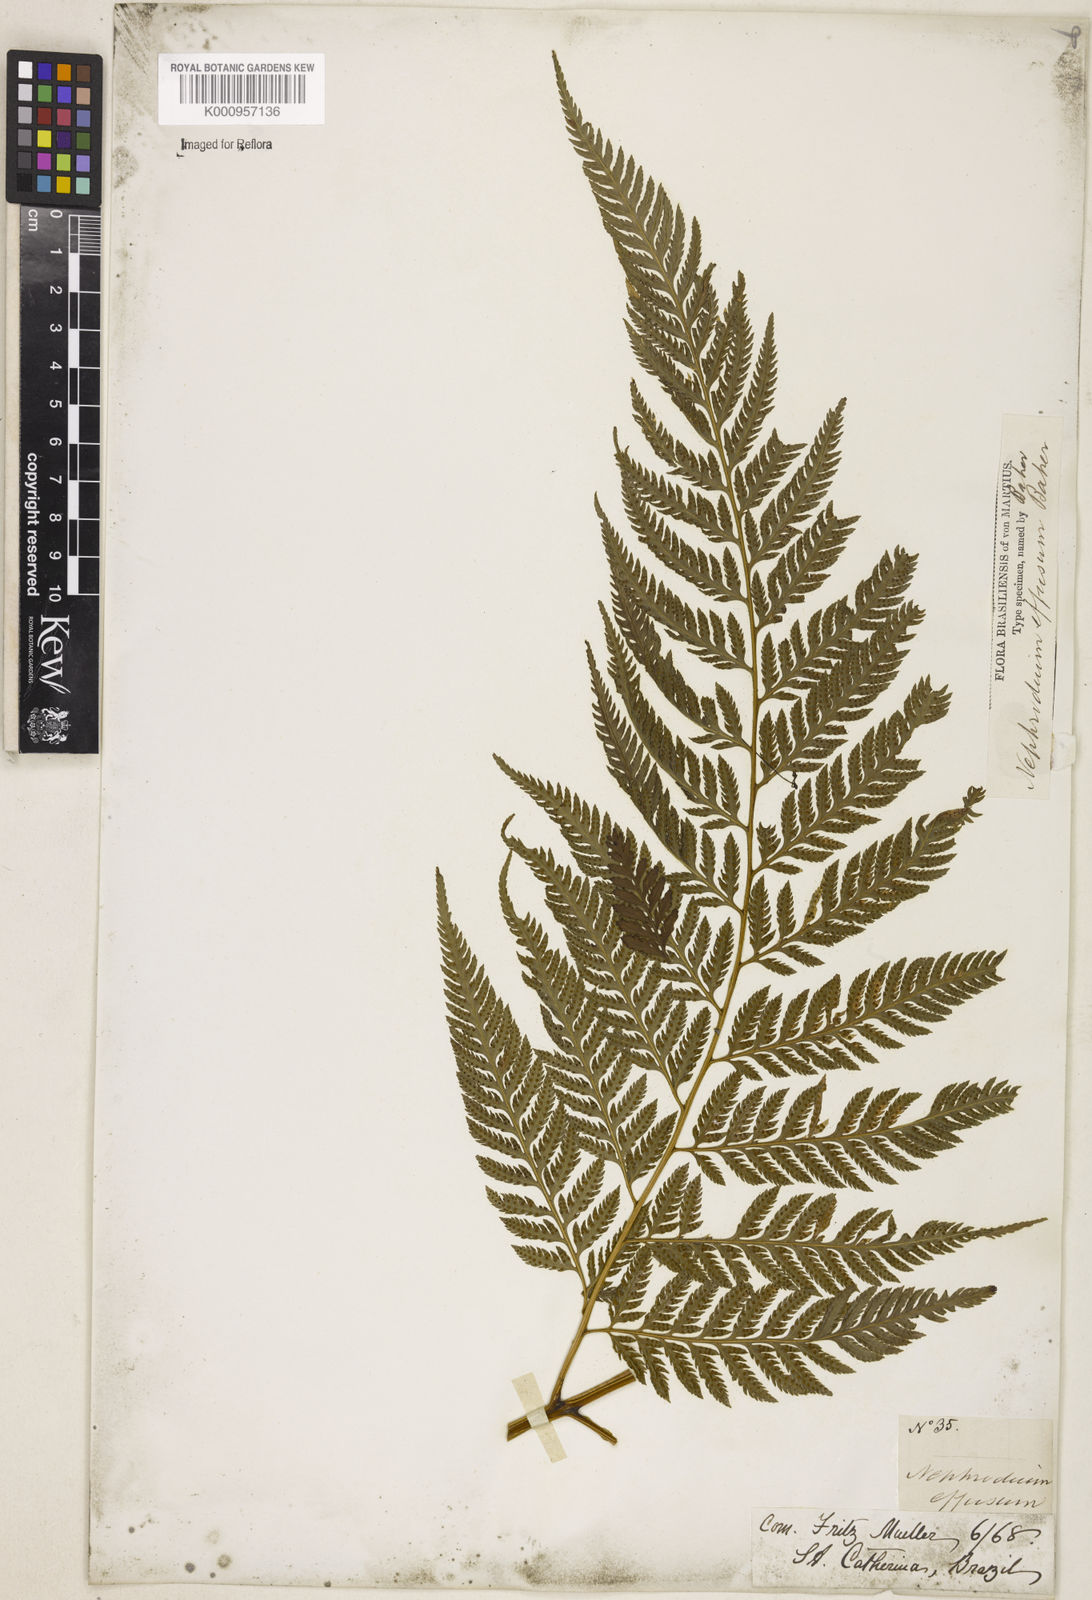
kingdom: Plantae
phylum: Tracheophyta
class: Polypodiopsida
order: Polypodiales
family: Dryopteridaceae
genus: Parapolystichum
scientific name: Parapolystichum effusum
